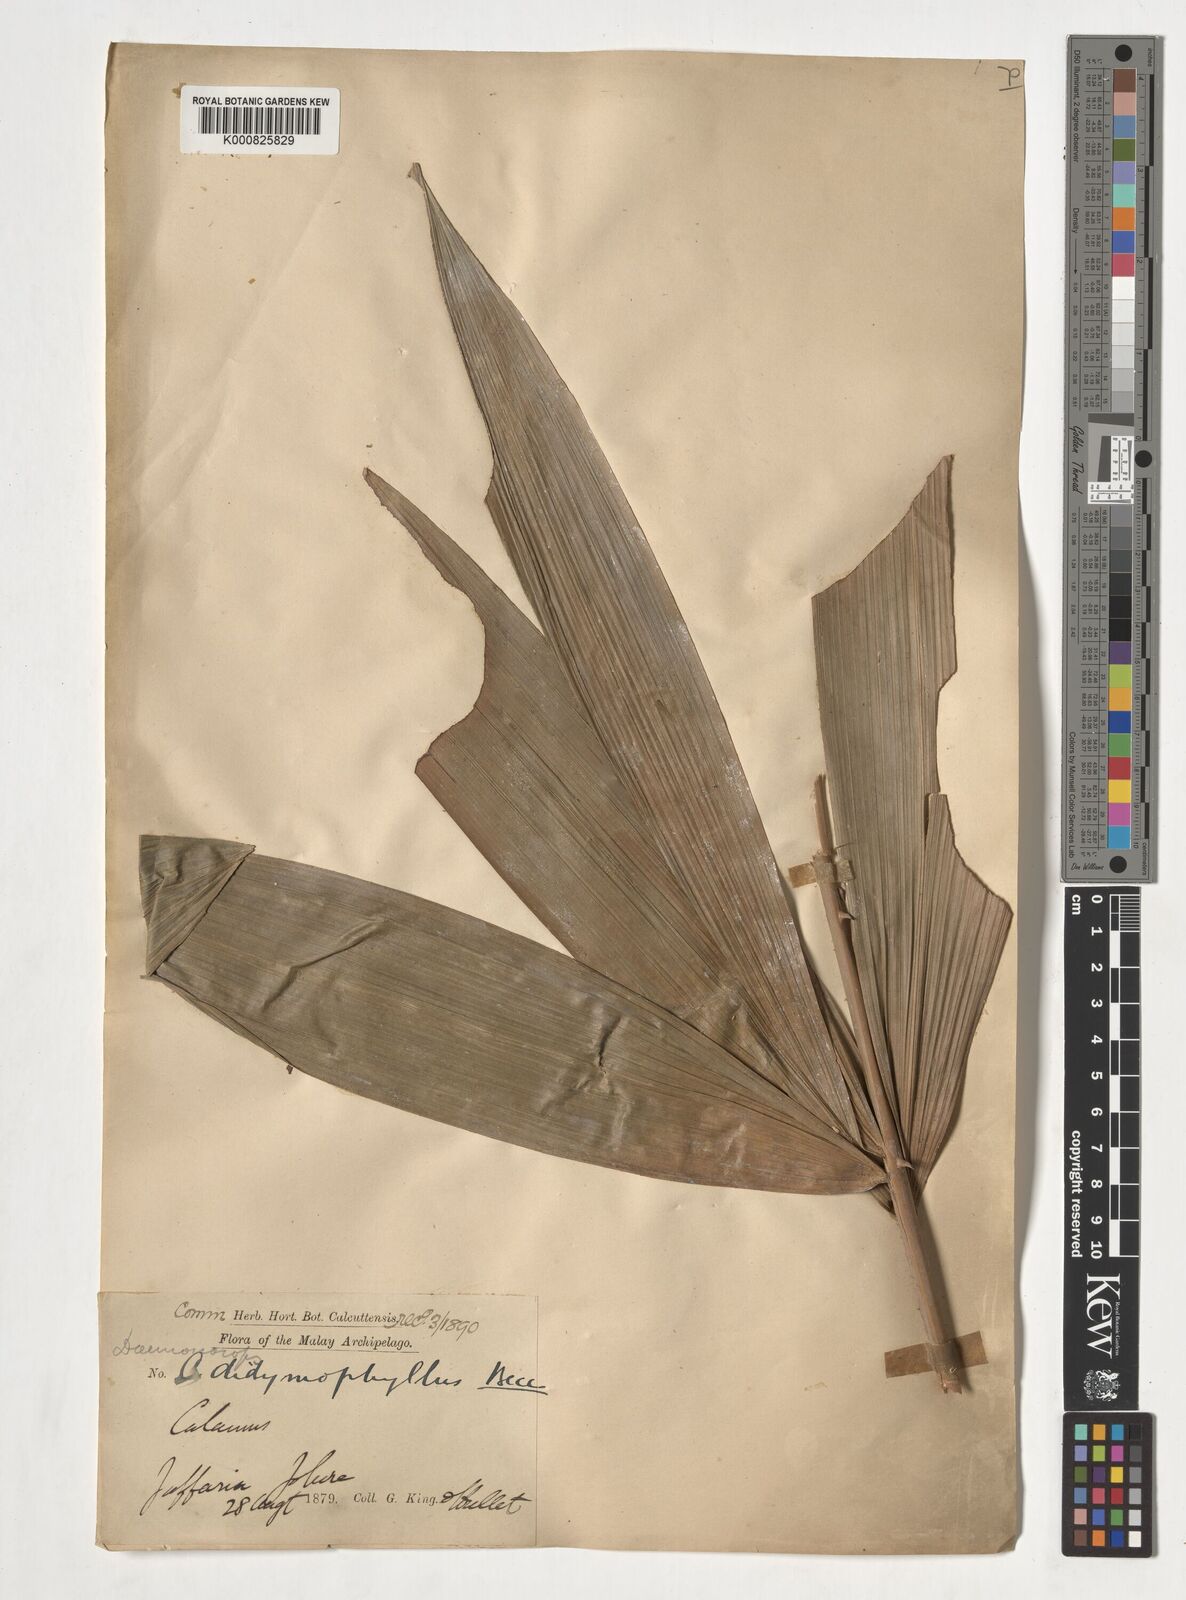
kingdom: Plantae
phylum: Tracheophyta
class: Liliopsida
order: Arecales
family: Arecaceae
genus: Calamus
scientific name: Calamus gracilipes
